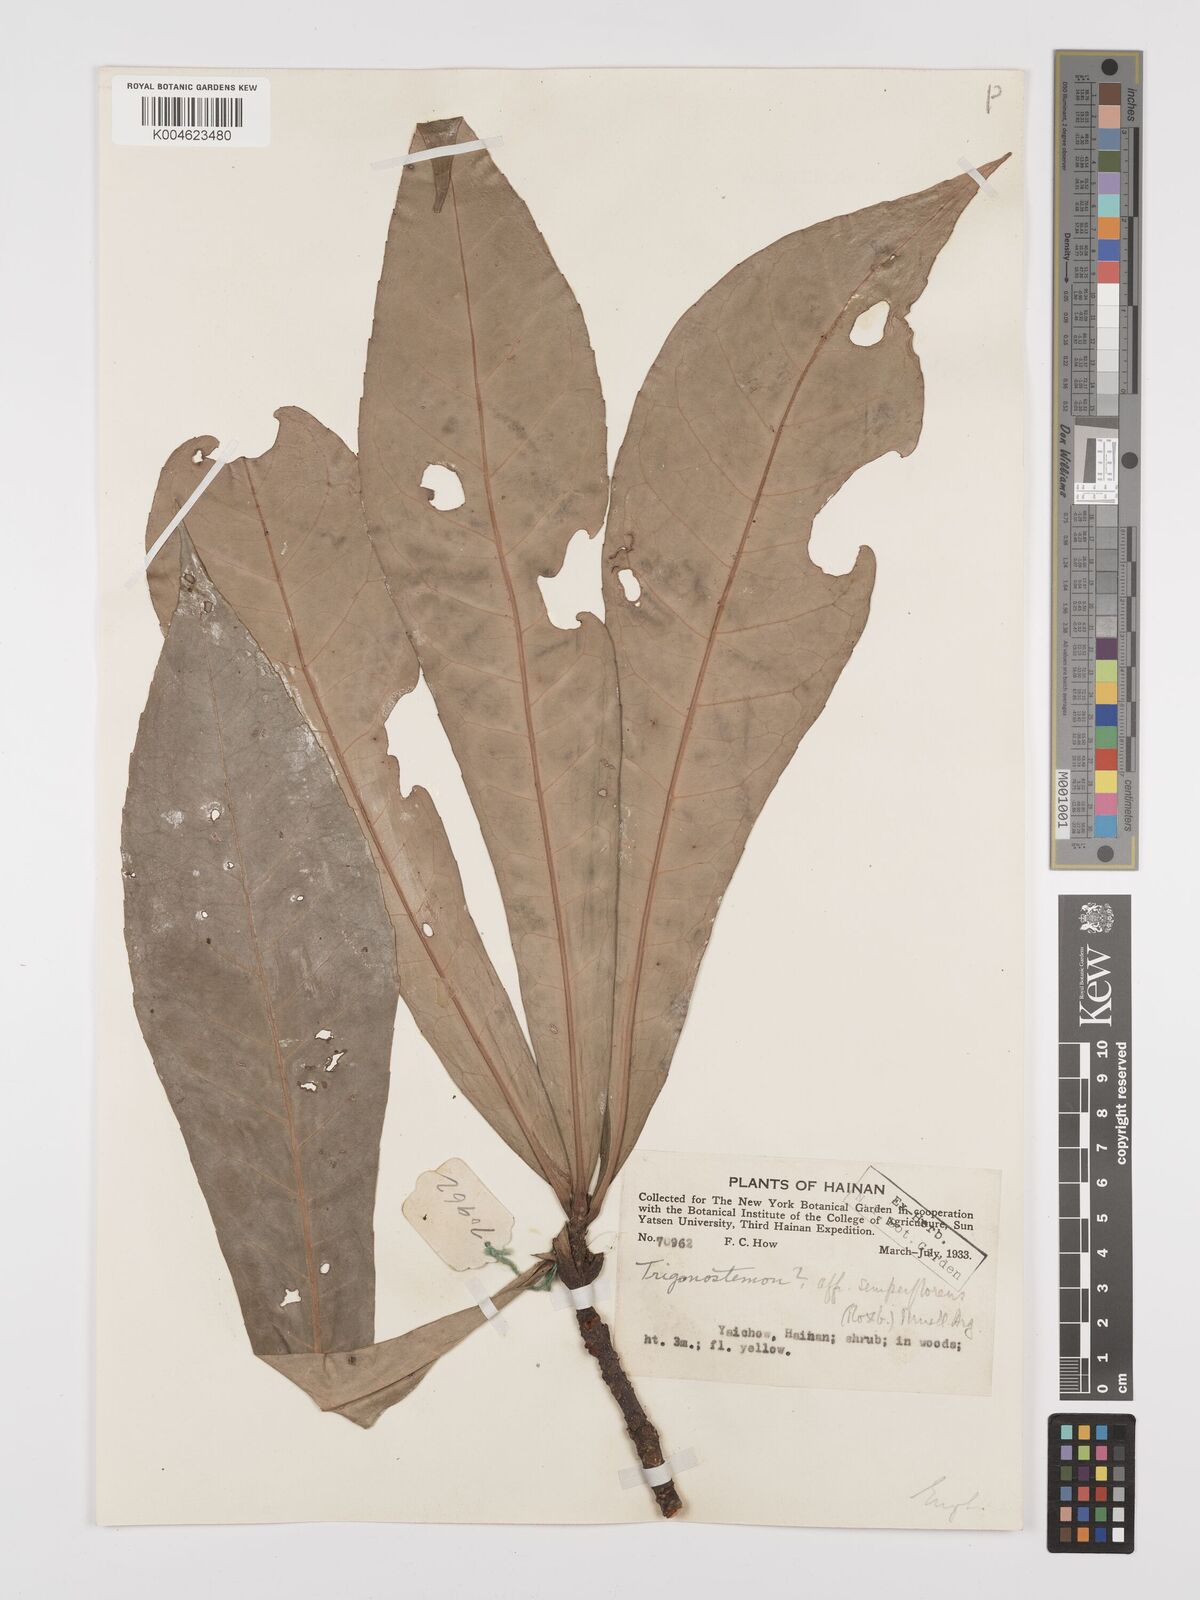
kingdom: Plantae
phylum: Tracheophyta
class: Magnoliopsida
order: Malpighiales
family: Euphorbiaceae
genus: Trigonostemon
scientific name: Trigonostemon philippinensis
